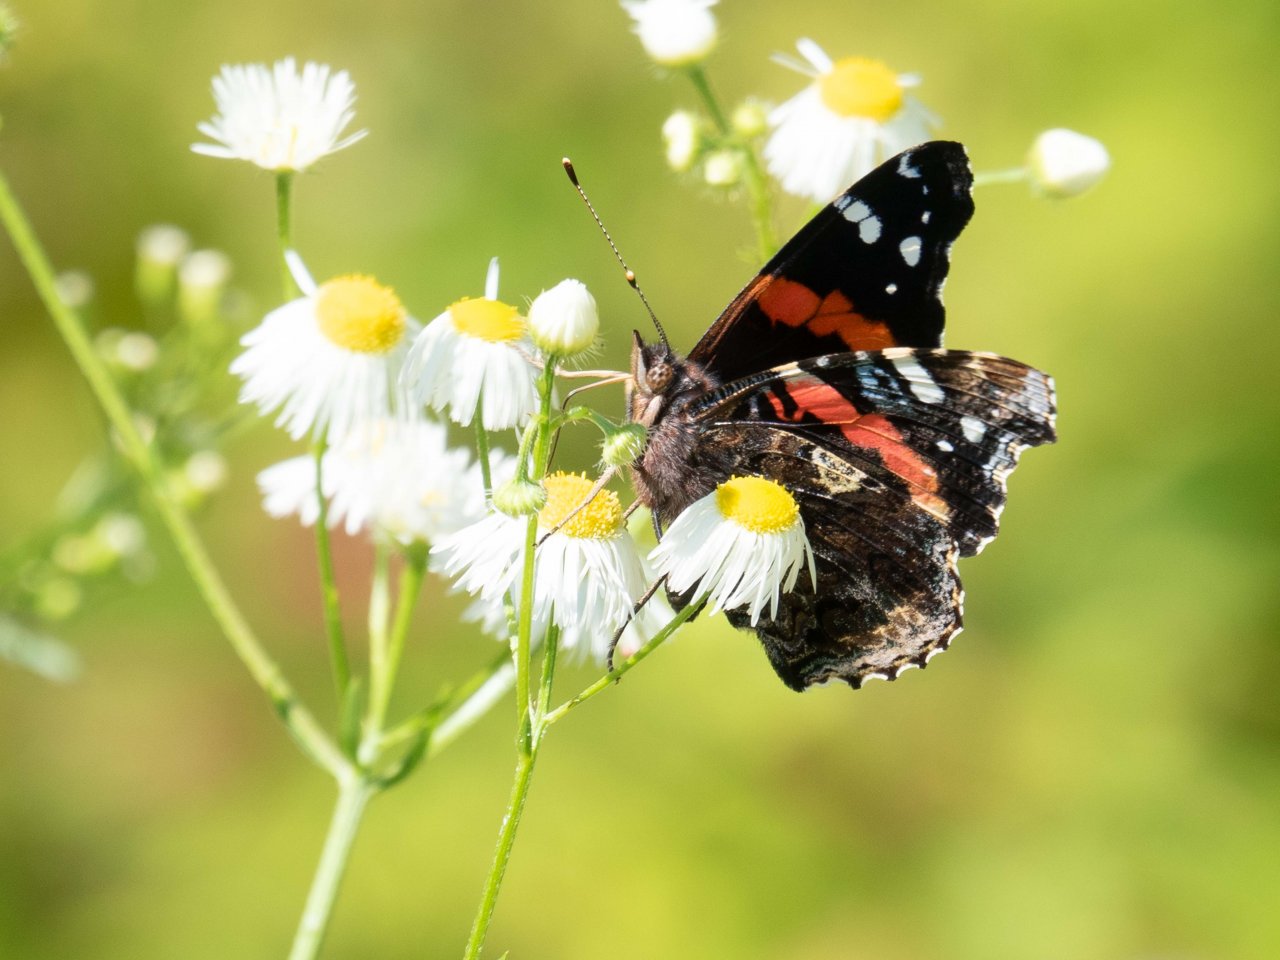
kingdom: Animalia
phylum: Arthropoda
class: Insecta
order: Lepidoptera
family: Nymphalidae
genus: Vanessa
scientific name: Vanessa atalanta
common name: Red Admiral
